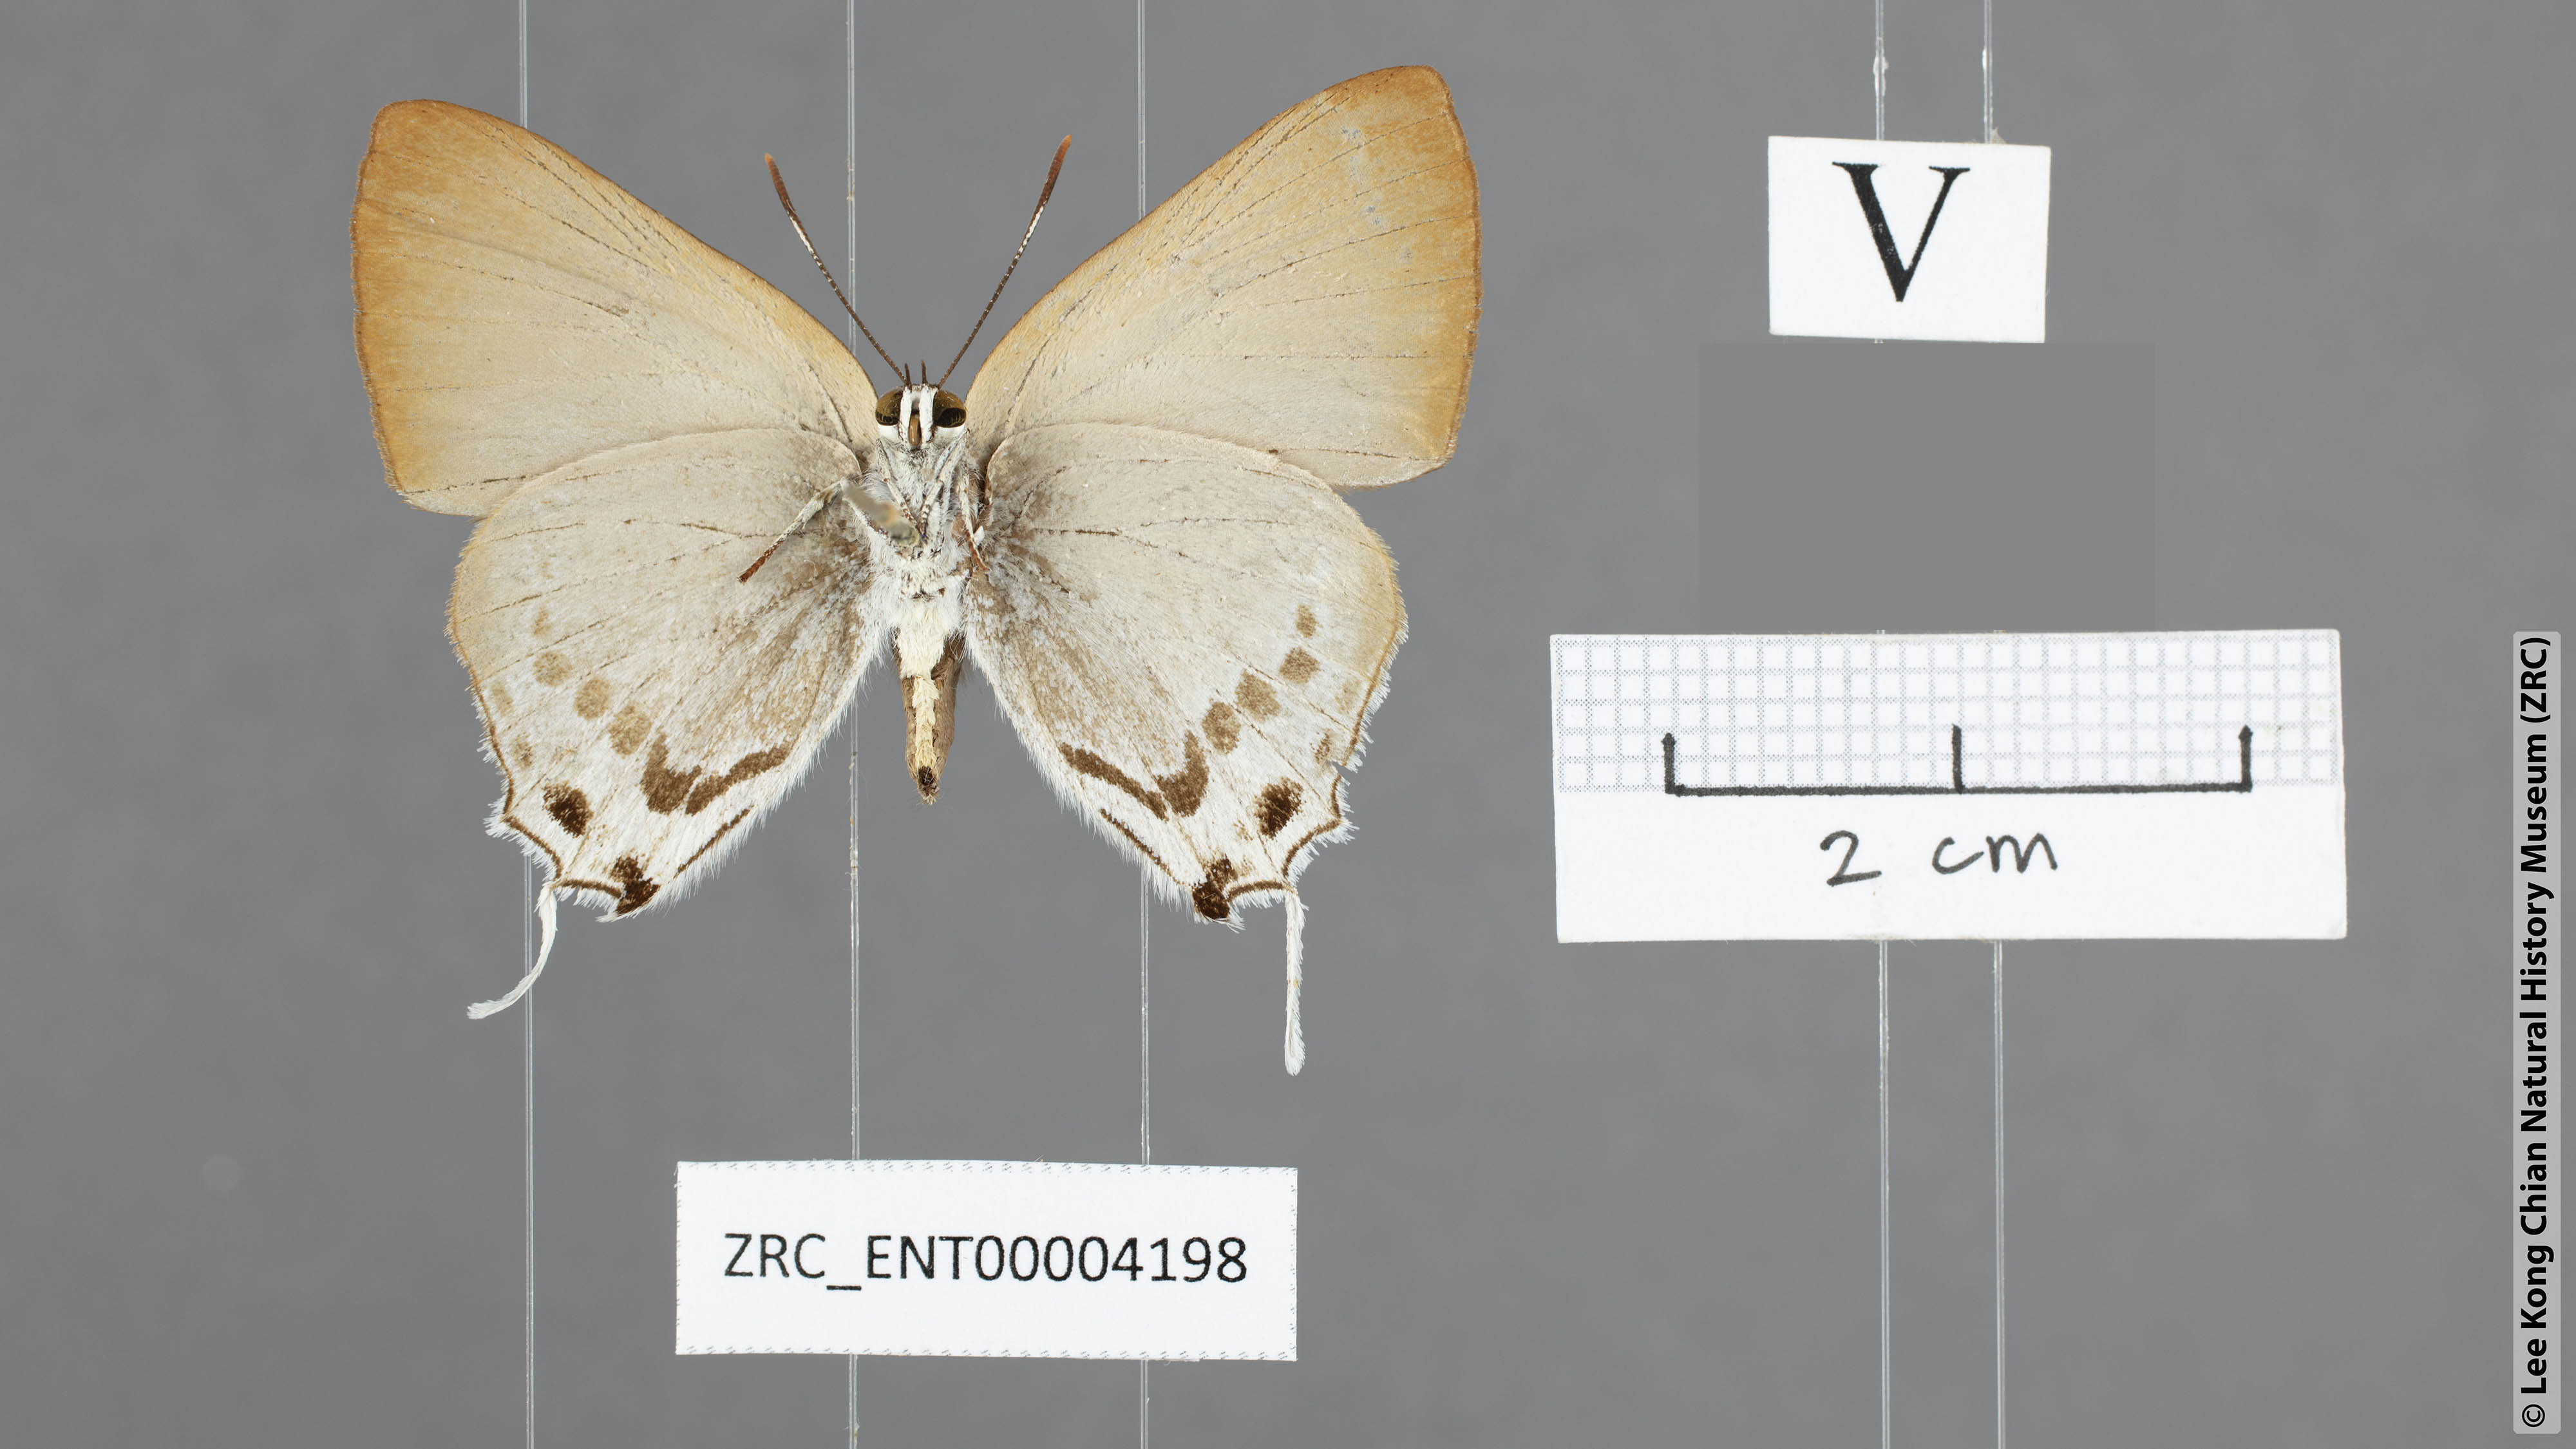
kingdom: Animalia
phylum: Arthropoda
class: Insecta
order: Lepidoptera
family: Lycaenidae
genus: Deudorix
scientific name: Deudorix
